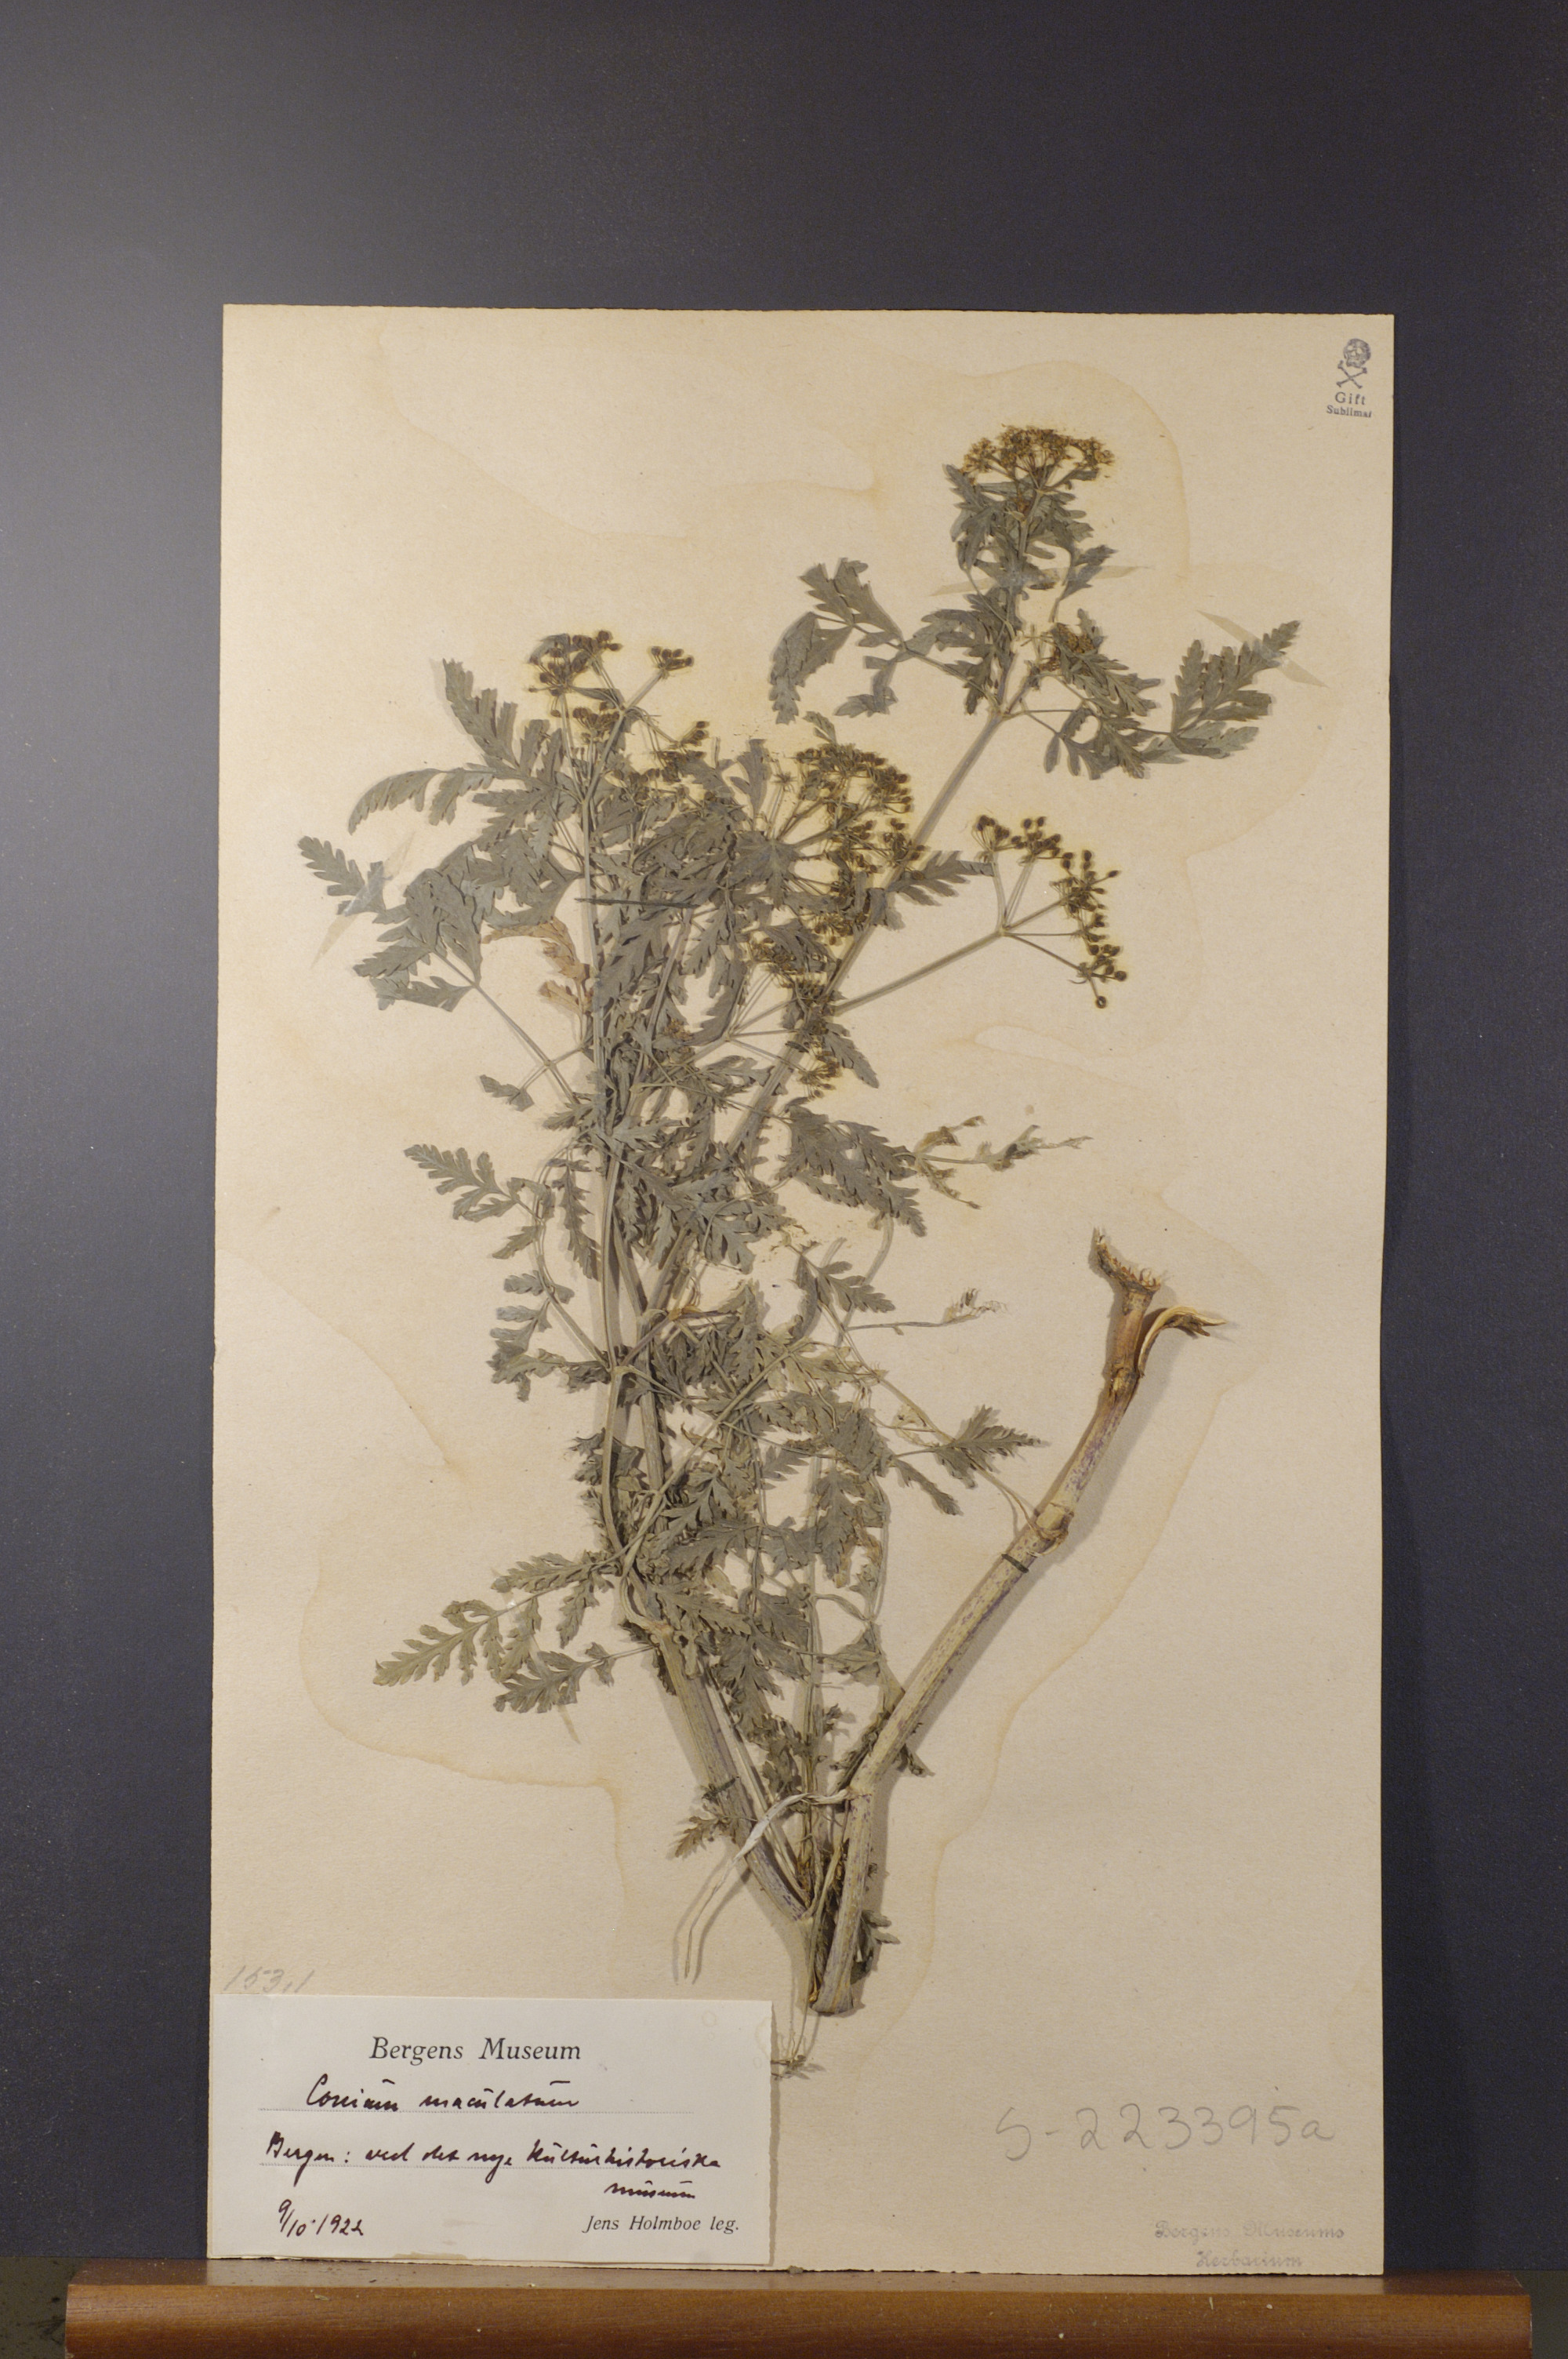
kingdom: Plantae
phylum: Tracheophyta
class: Magnoliopsida
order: Apiales
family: Apiaceae
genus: Conium
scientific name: Conium maculatum
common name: Hemlock
